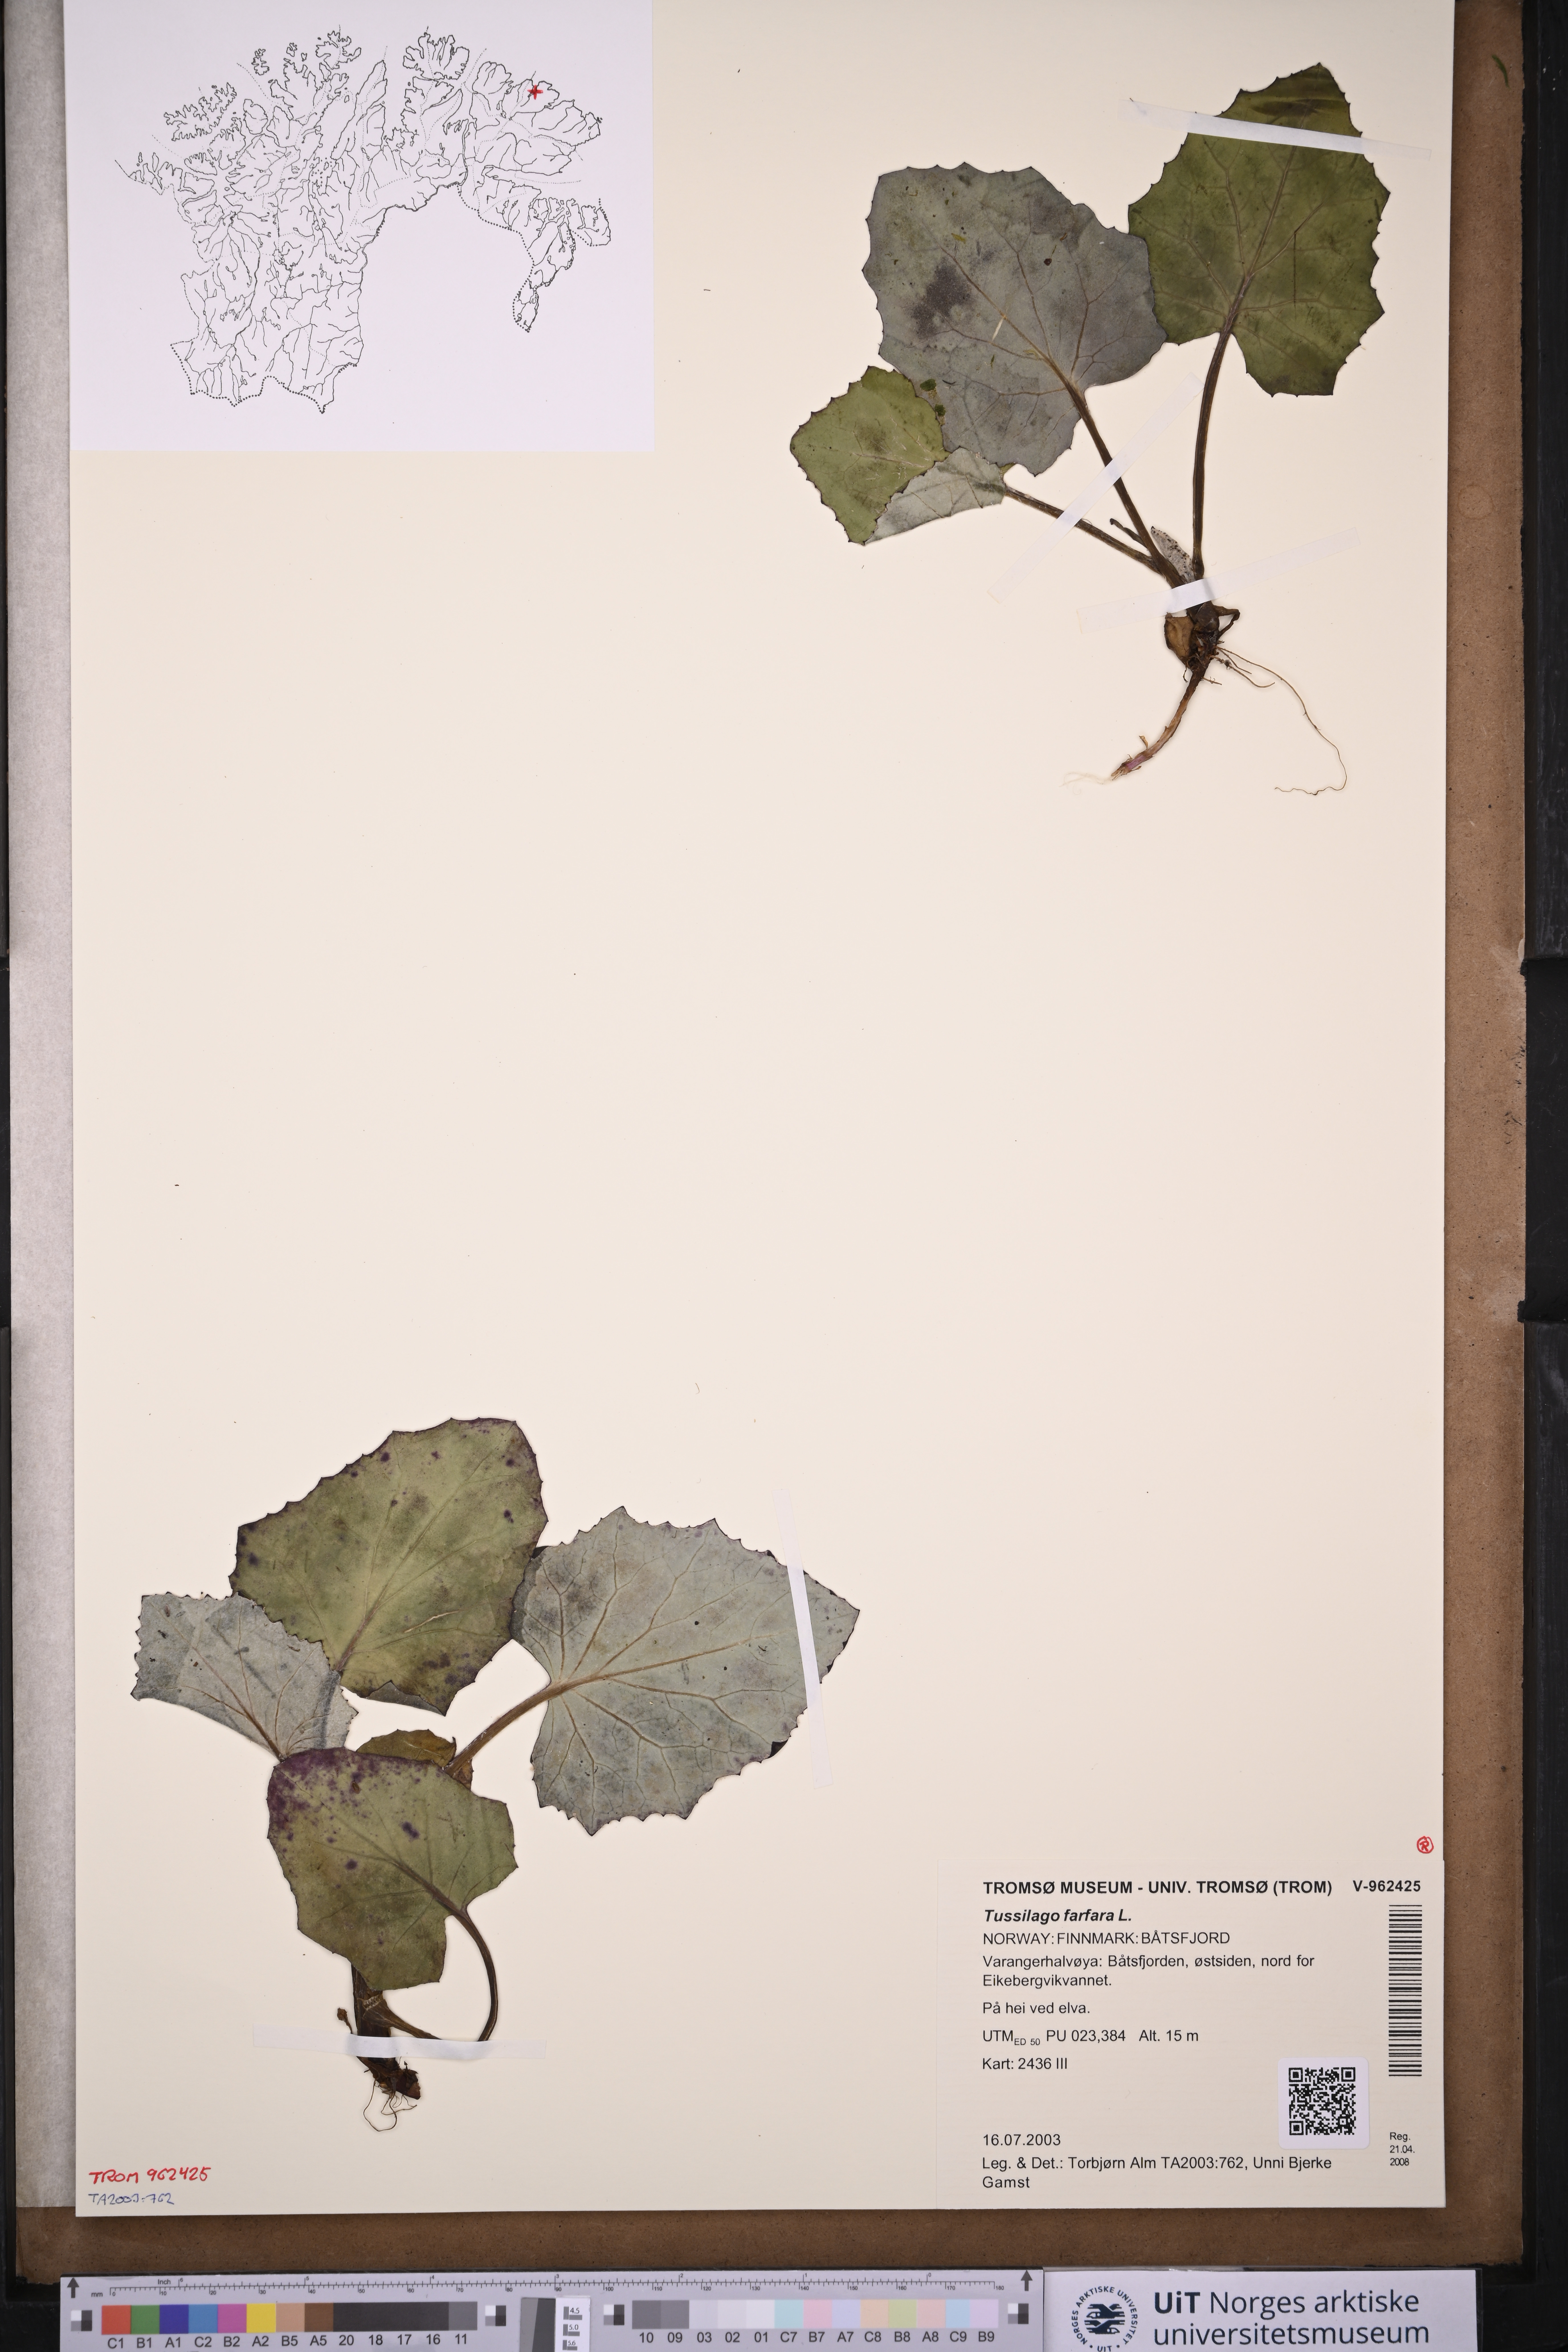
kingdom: Plantae
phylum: Tracheophyta
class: Magnoliopsida
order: Asterales
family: Asteraceae
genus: Tussilago
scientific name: Tussilago farfara
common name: Coltsfoot
